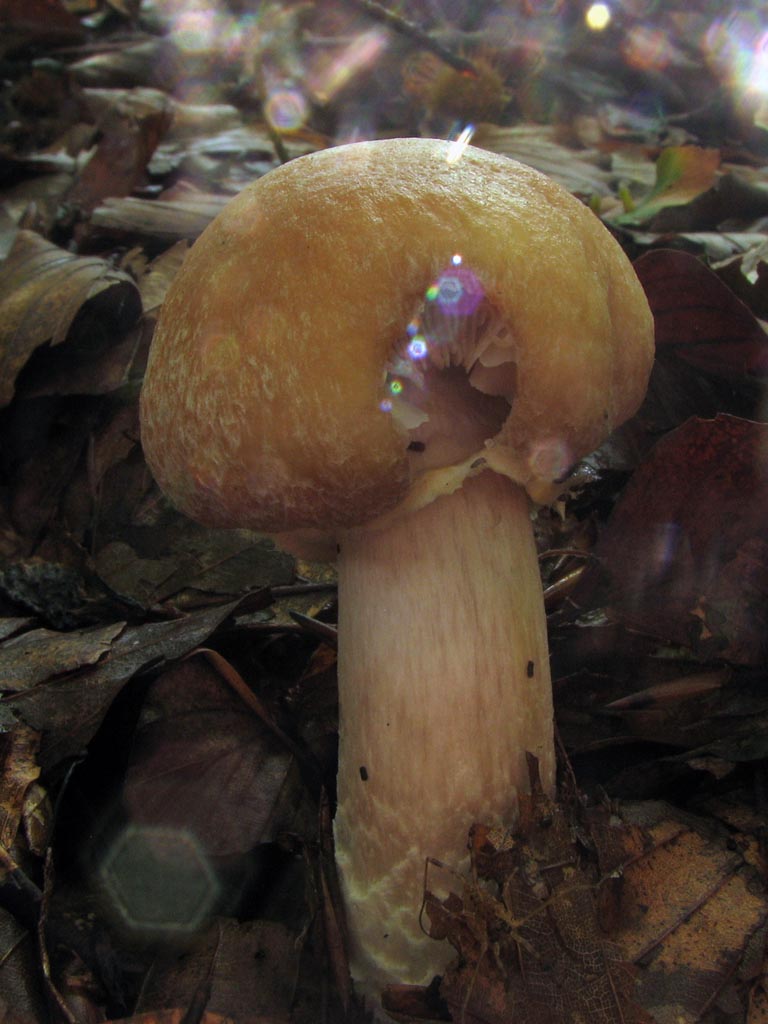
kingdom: Fungi
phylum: Basidiomycota
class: Agaricomycetes
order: Agaricales
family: Cortinariaceae
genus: Cortinarius
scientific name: Cortinarius caperatus
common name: klidhat
